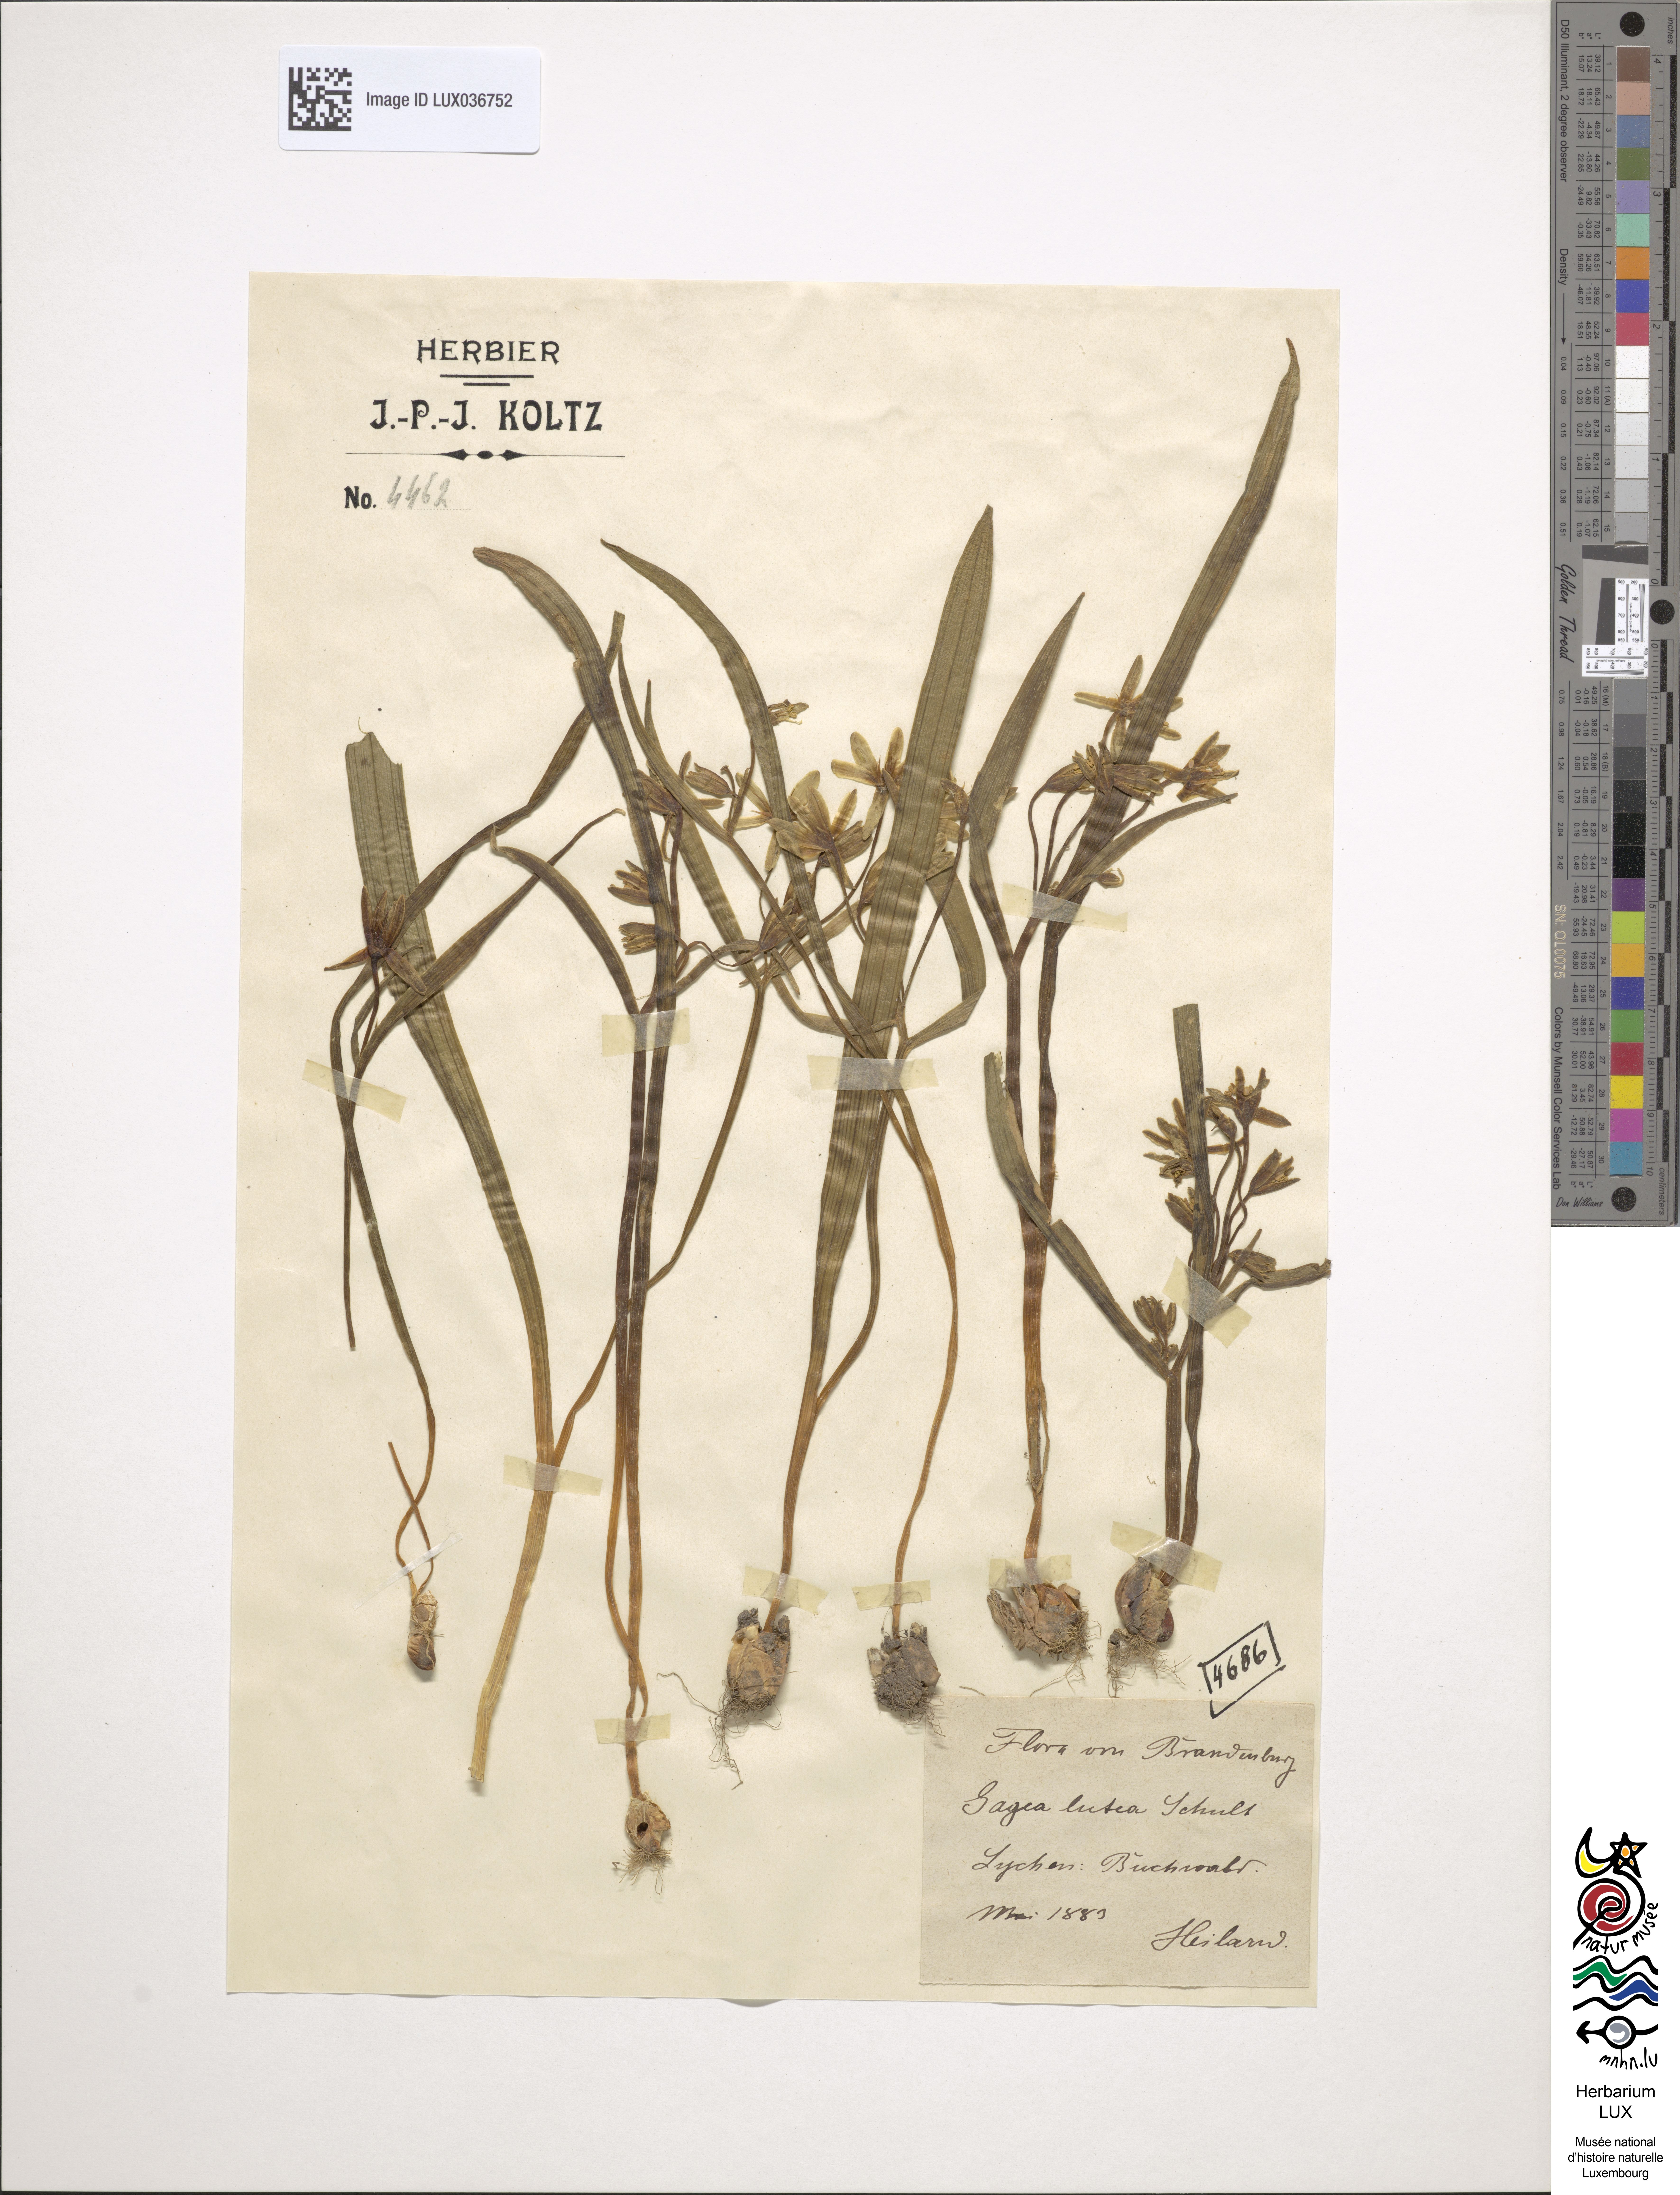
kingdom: Plantae
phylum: Tracheophyta
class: Liliopsida
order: Liliales
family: Liliaceae
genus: Gagea
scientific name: Gagea lutea
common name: Yellow star-of-bethlehem
